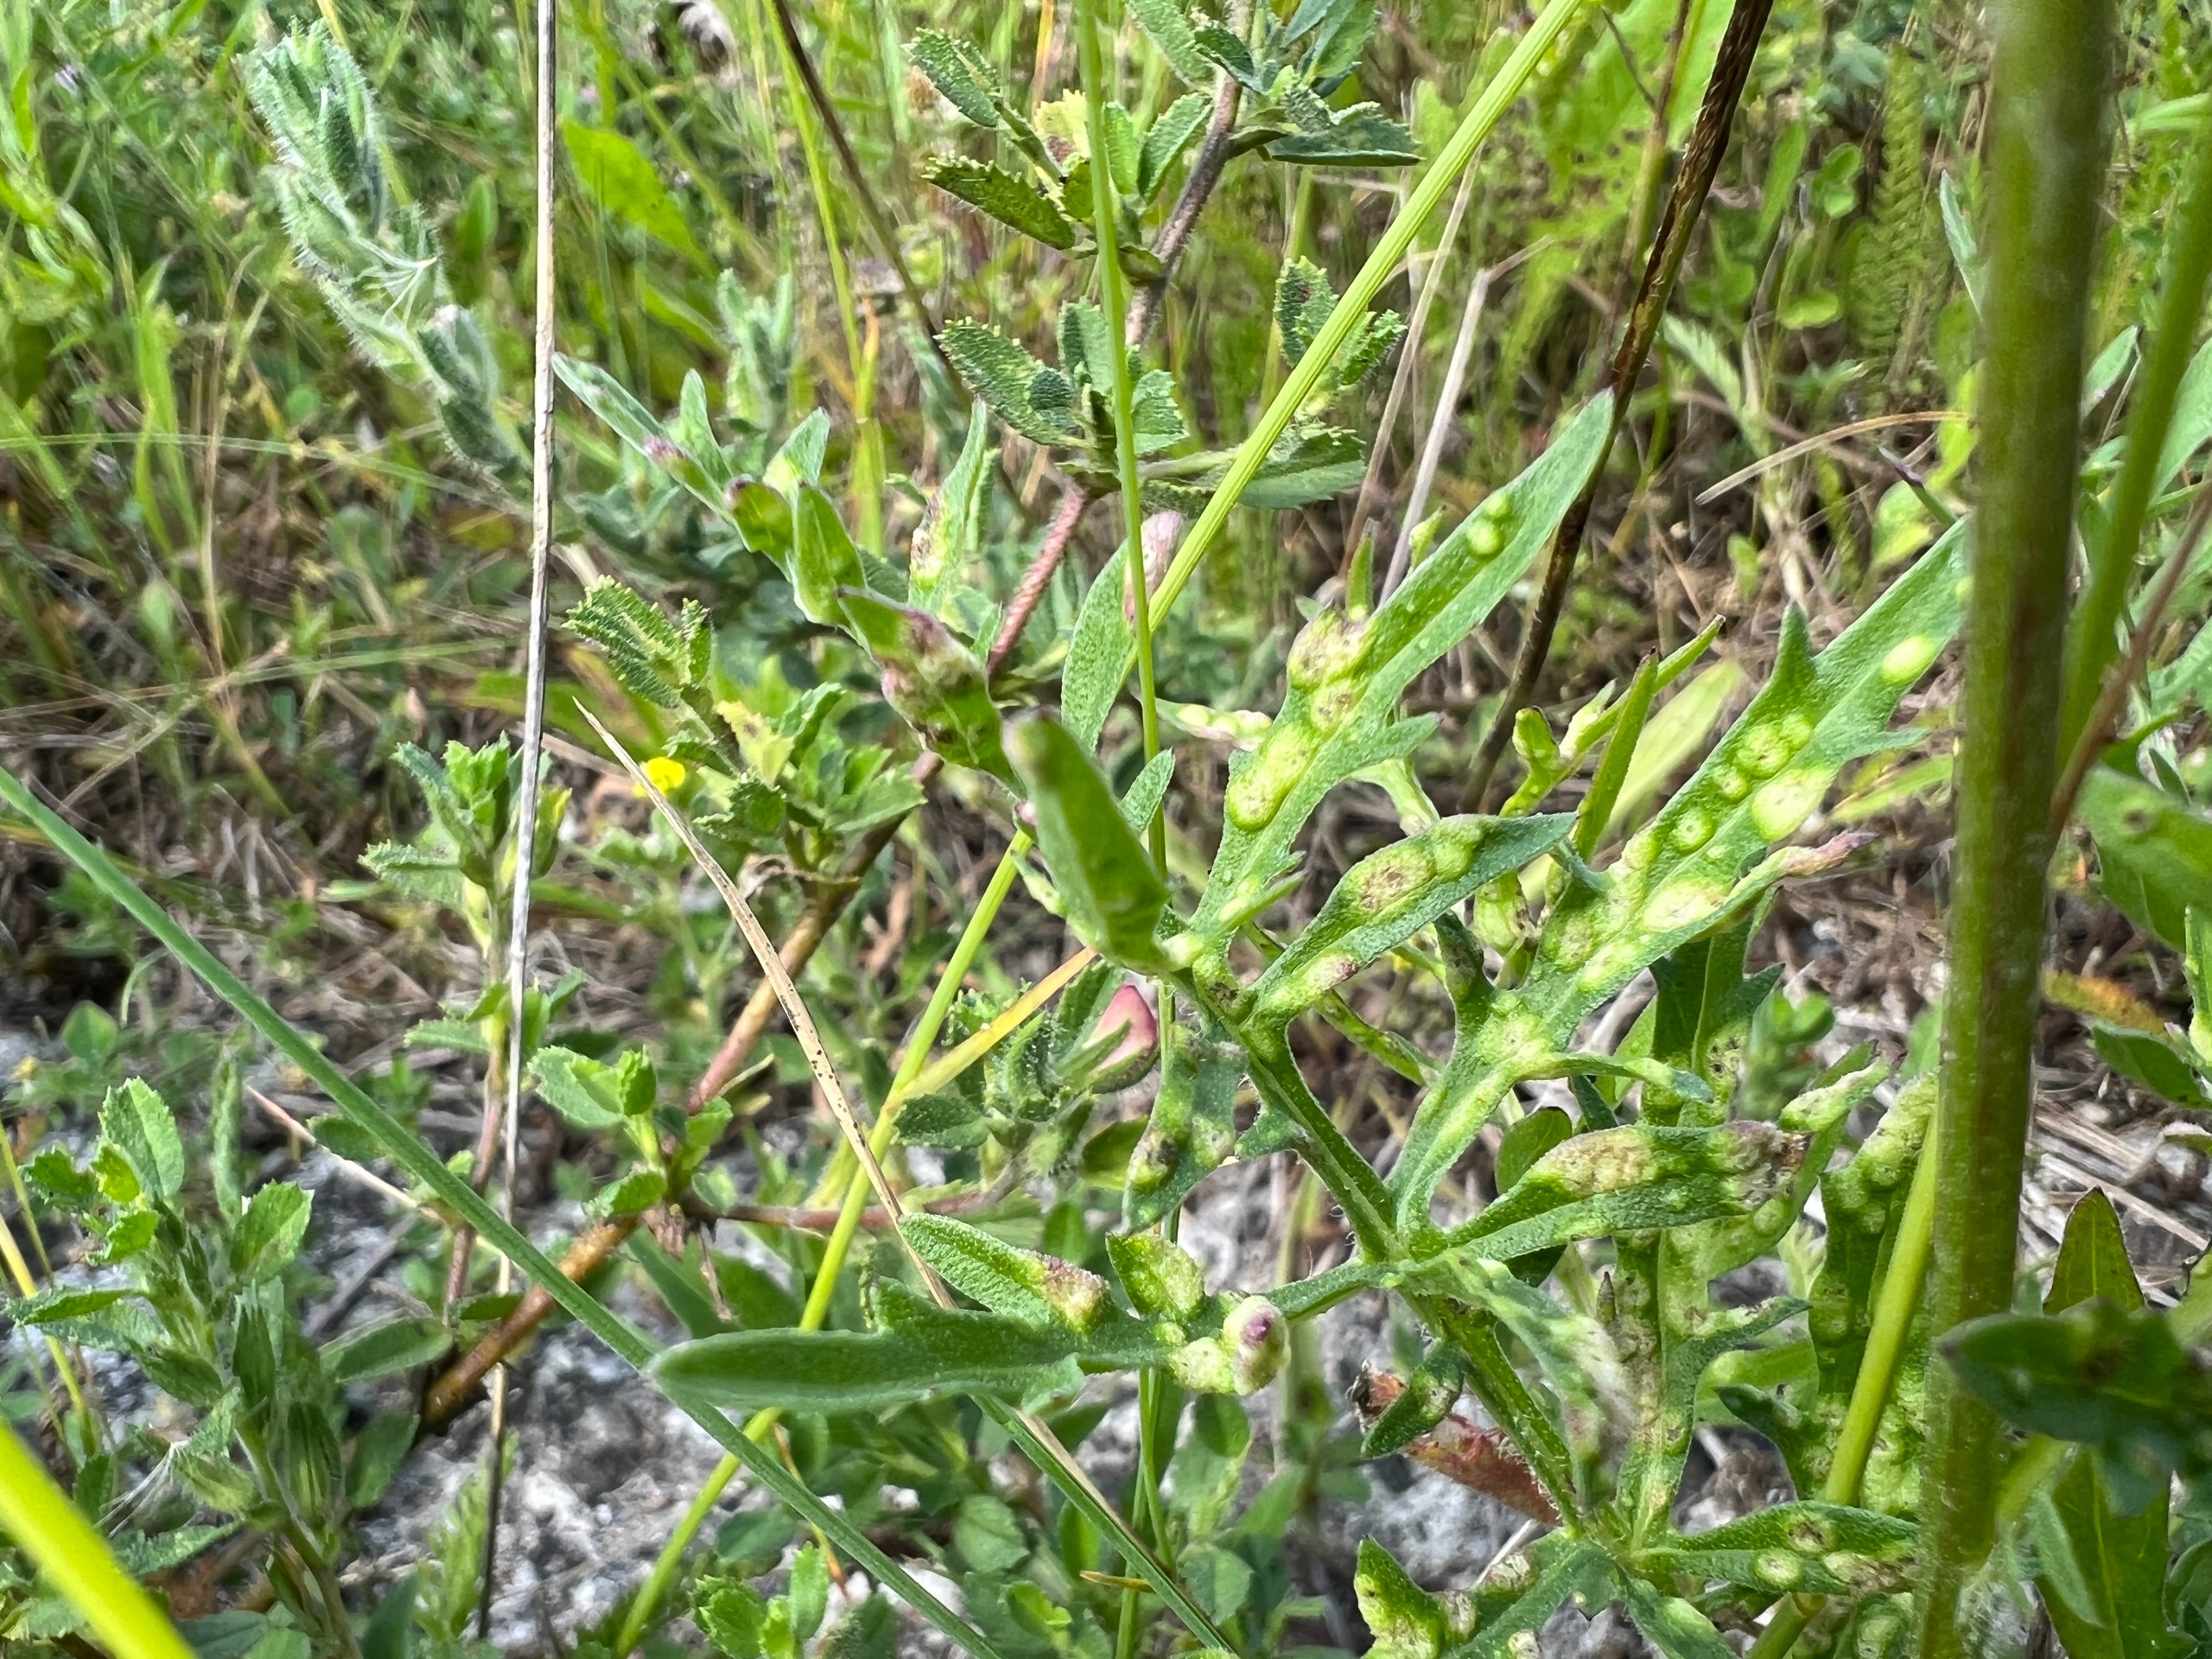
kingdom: Animalia
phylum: Arthropoda
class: Arachnida
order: Trombidiformes
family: Eriophyidae
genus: Aceria
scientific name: Aceria centaureae
